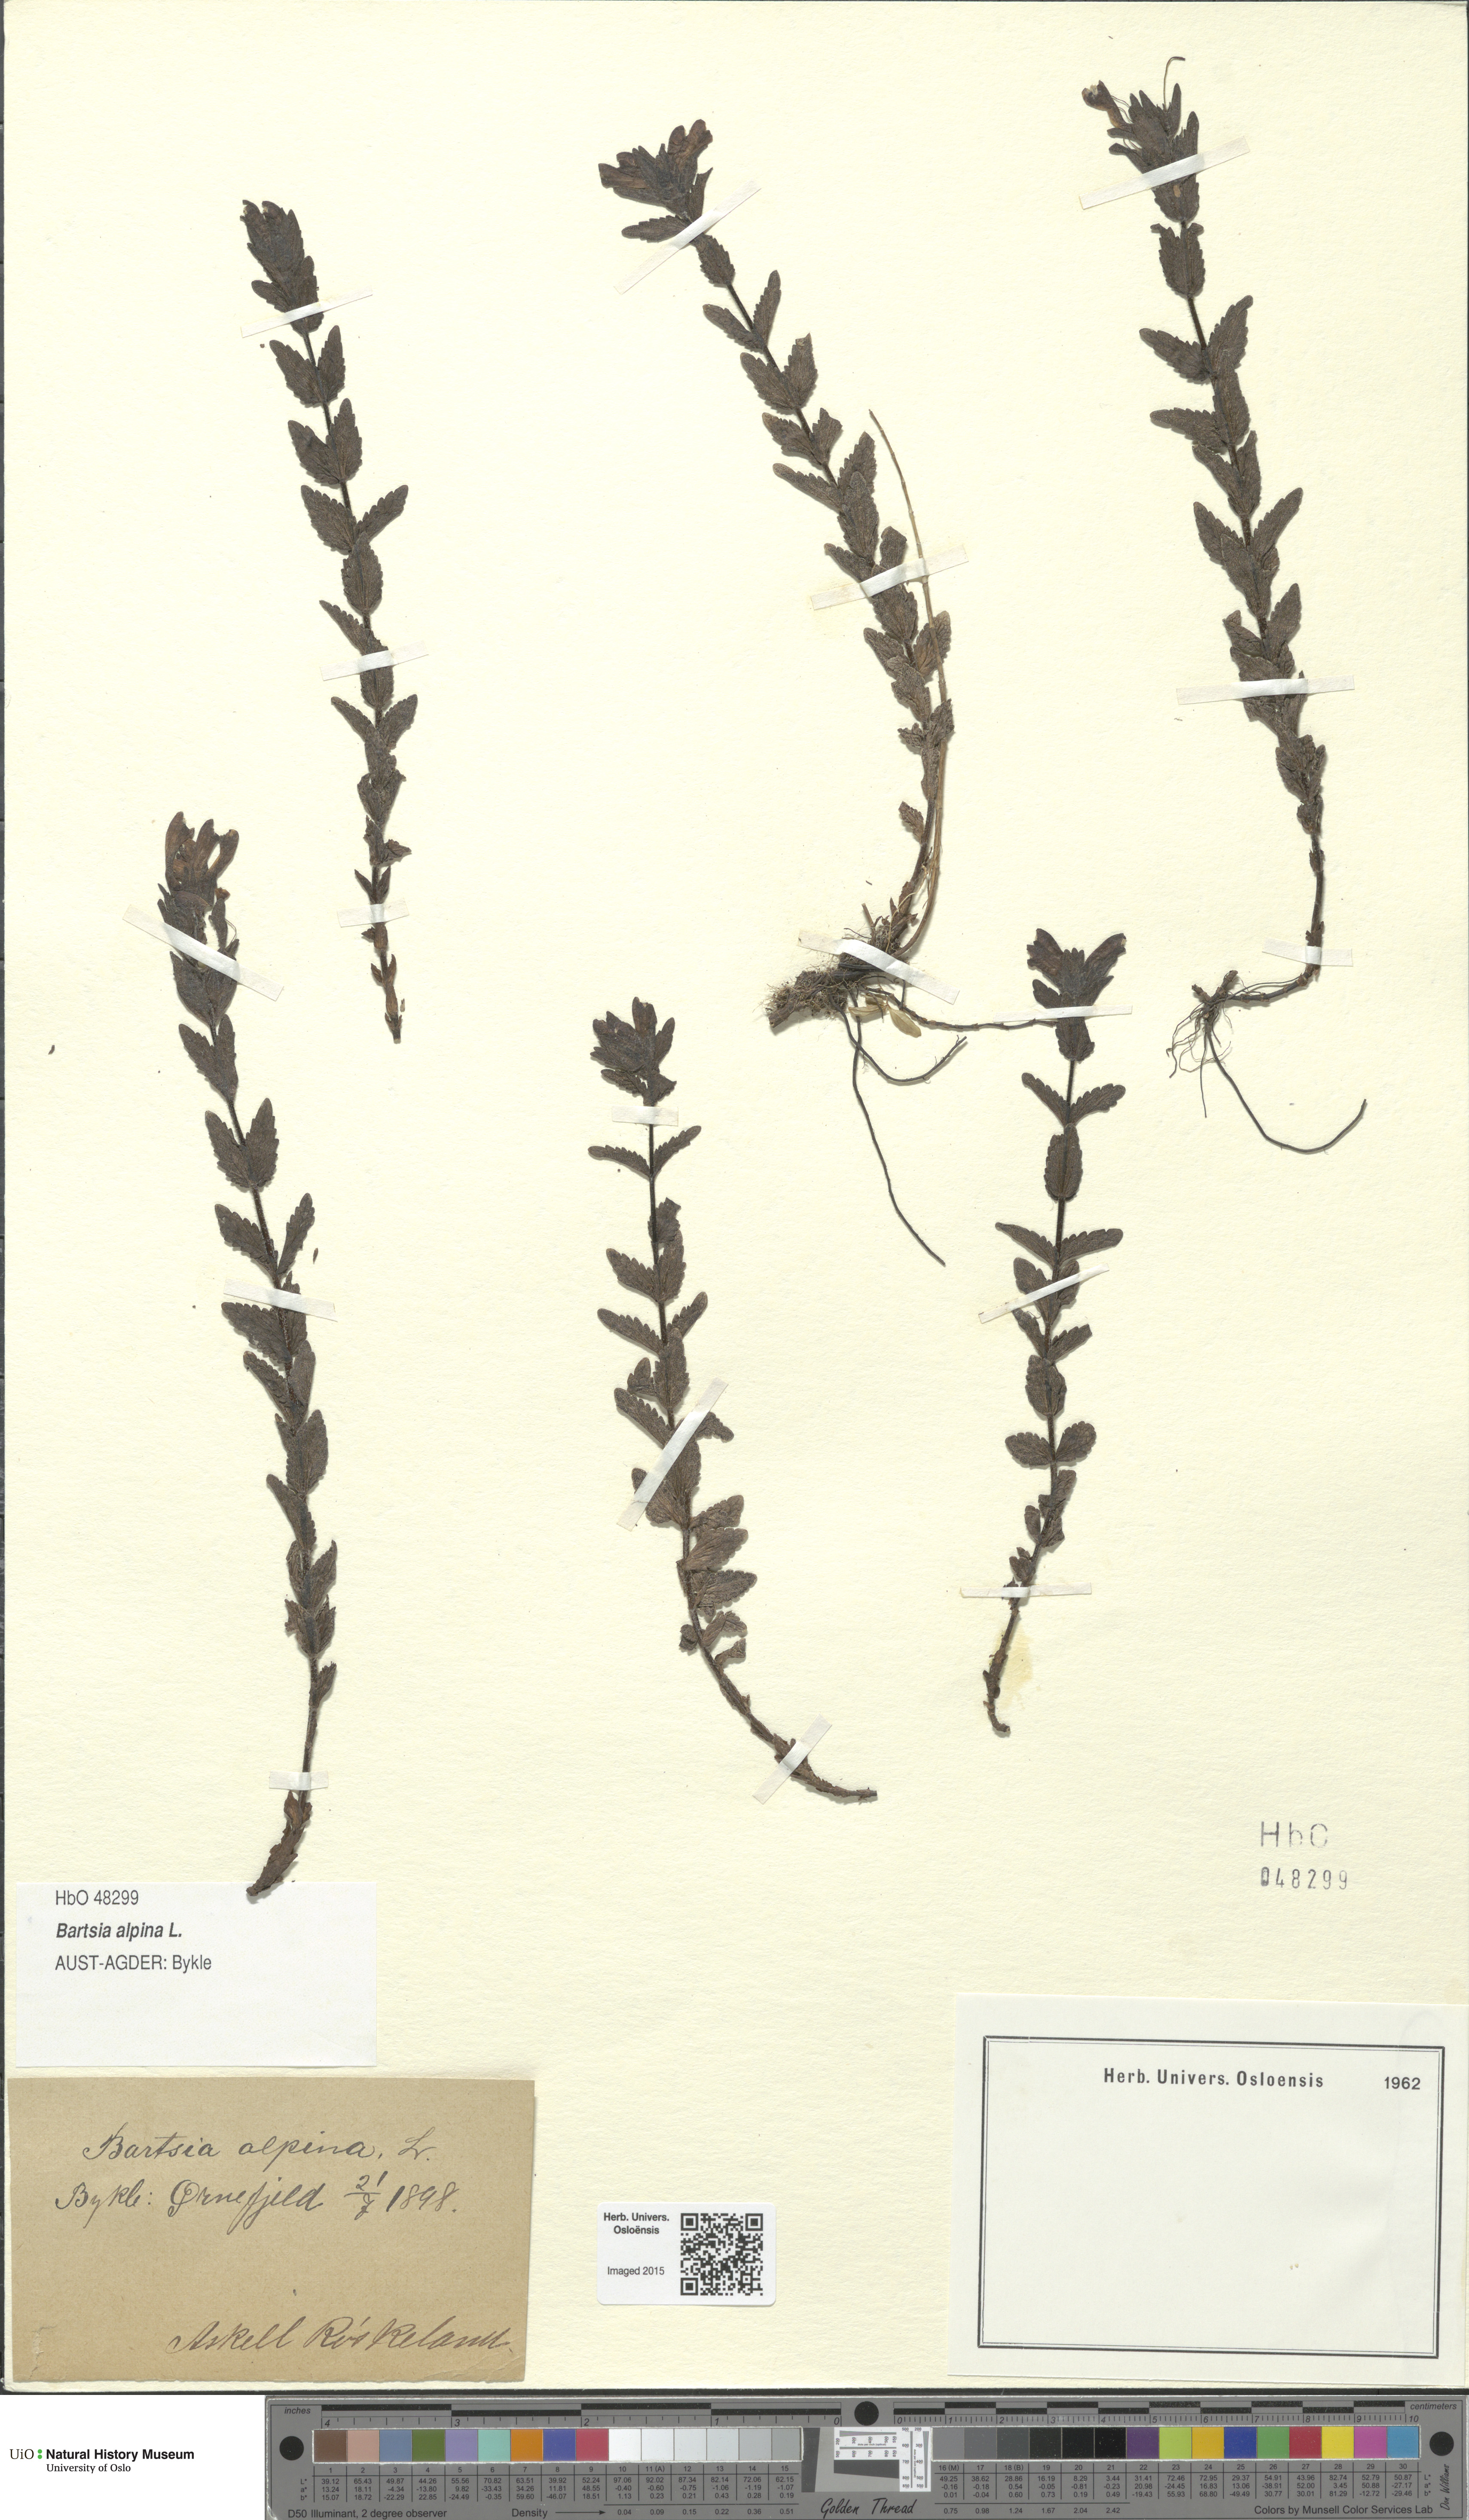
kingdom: Plantae
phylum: Tracheophyta
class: Magnoliopsida
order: Lamiales
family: Orobanchaceae
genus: Bartsia
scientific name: Bartsia alpina
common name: Alpine bartsia
